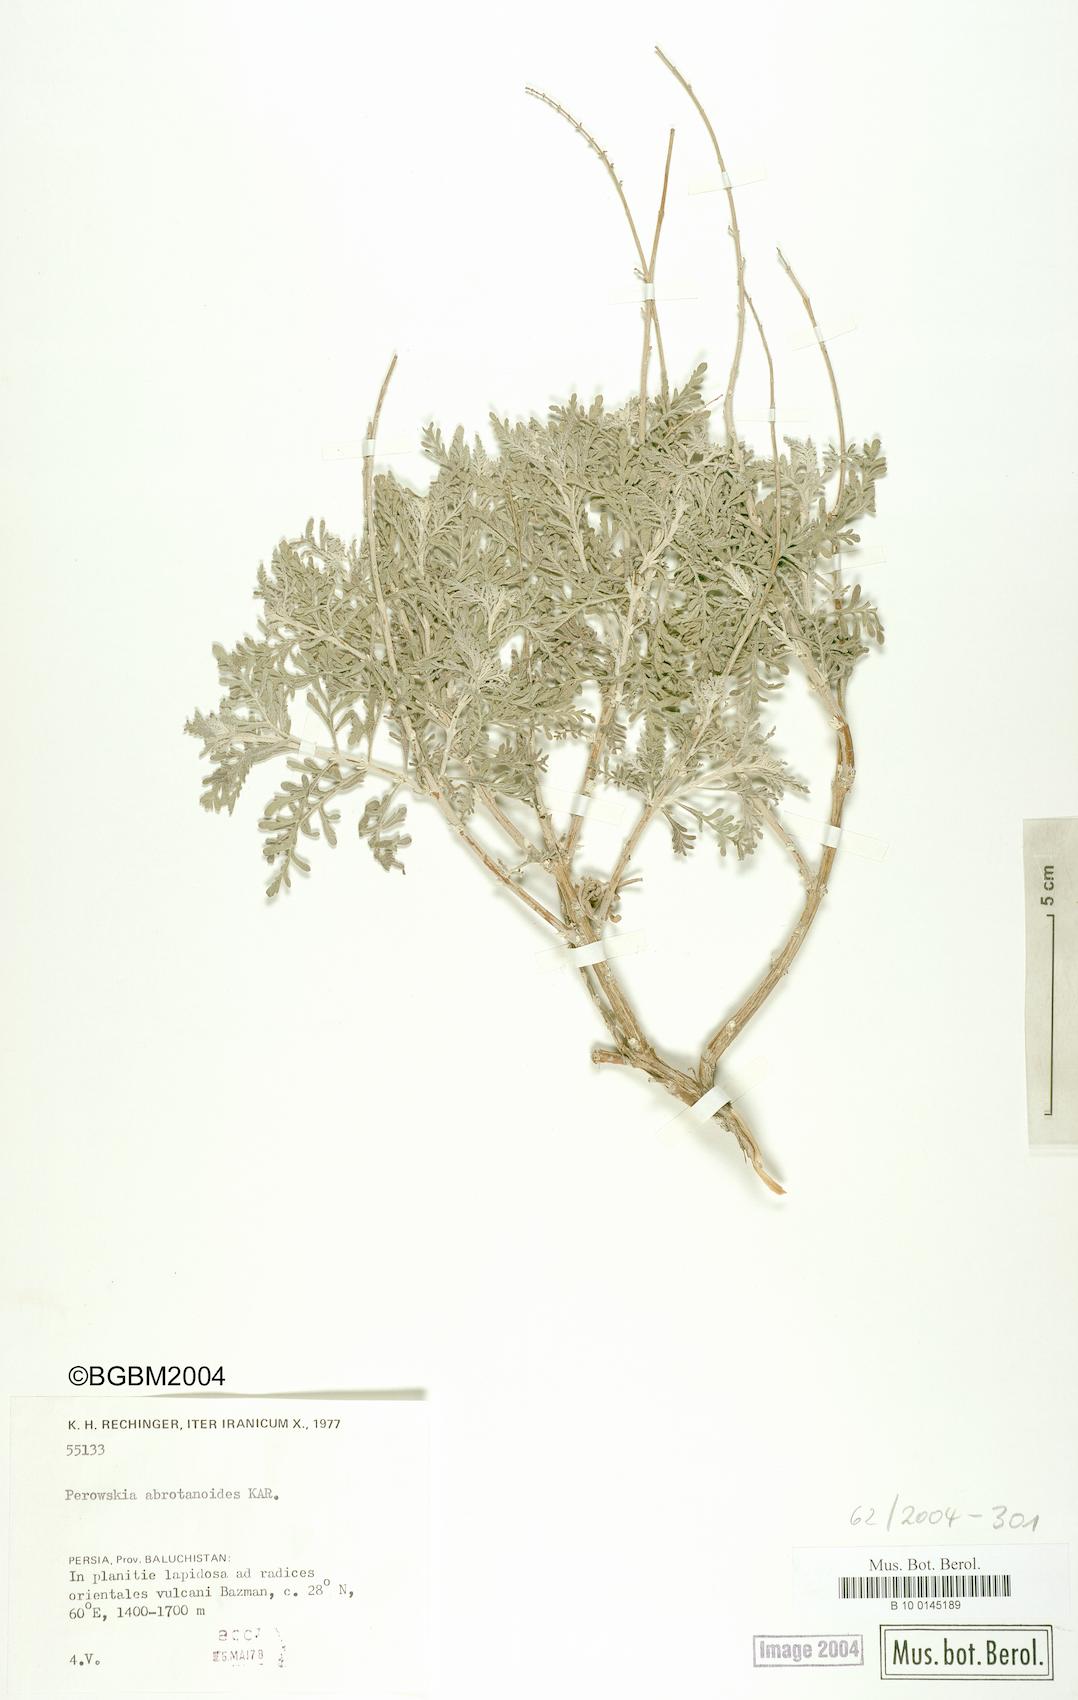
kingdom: Plantae
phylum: Tracheophyta
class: Magnoliopsida
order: Lamiales
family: Lamiaceae
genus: Salvia
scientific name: Salvia abrotanoides
